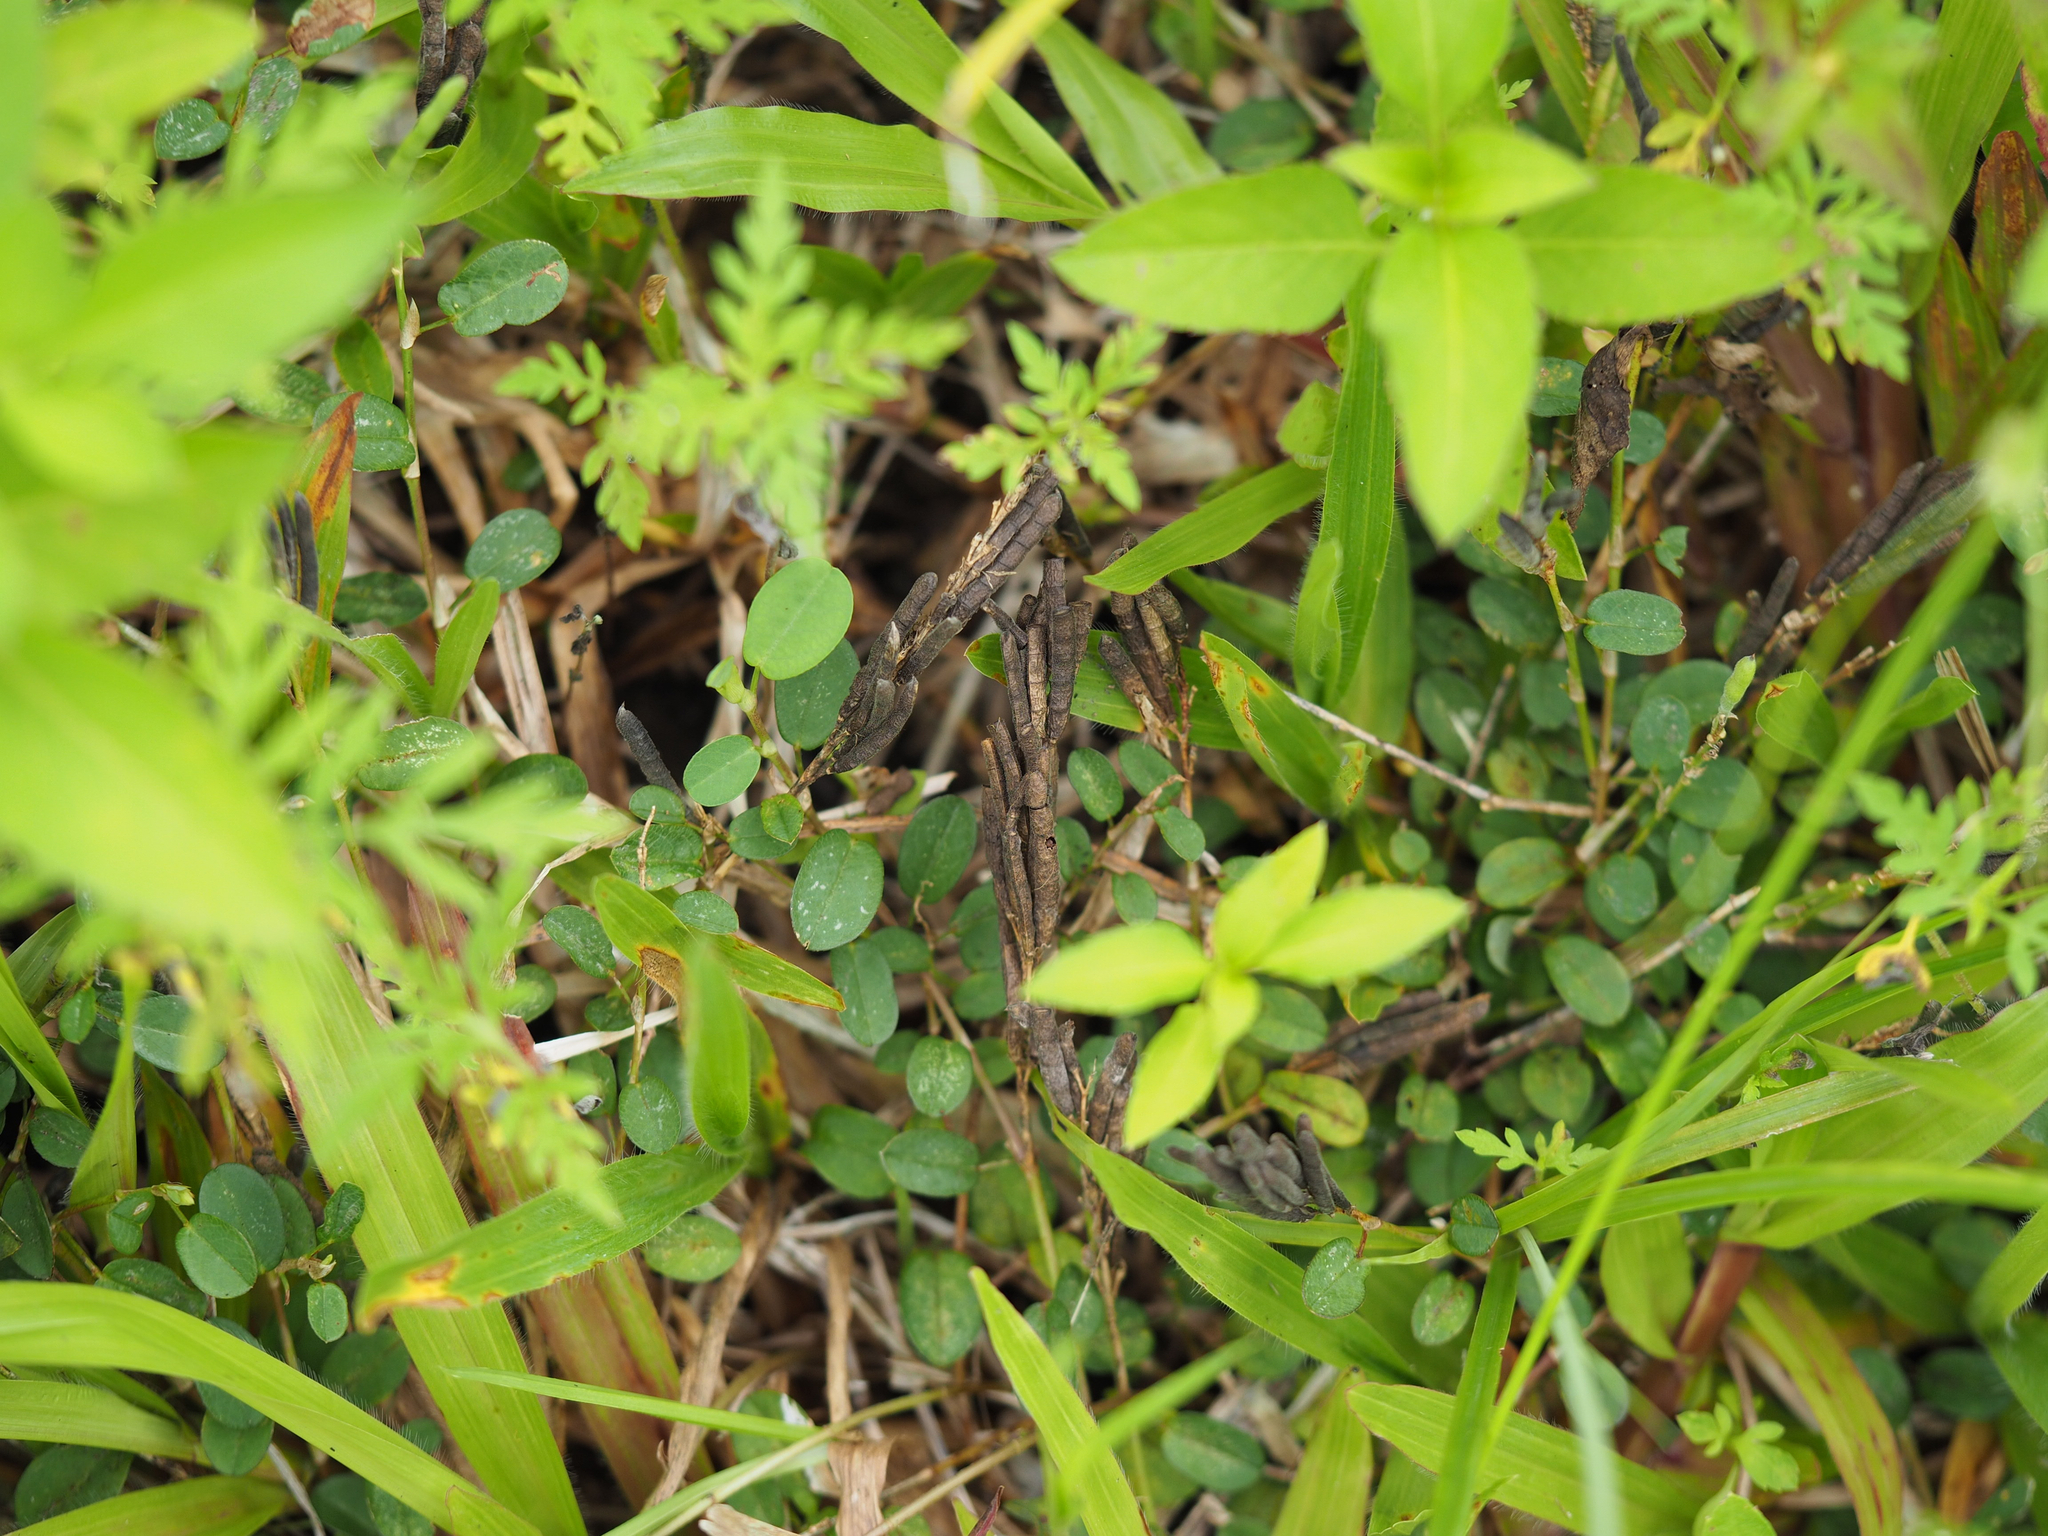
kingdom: Plantae
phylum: Tracheophyta
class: Magnoliopsida
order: Fabales
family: Fabaceae
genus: Alysicarpus
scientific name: Alysicarpus ovalifolius
